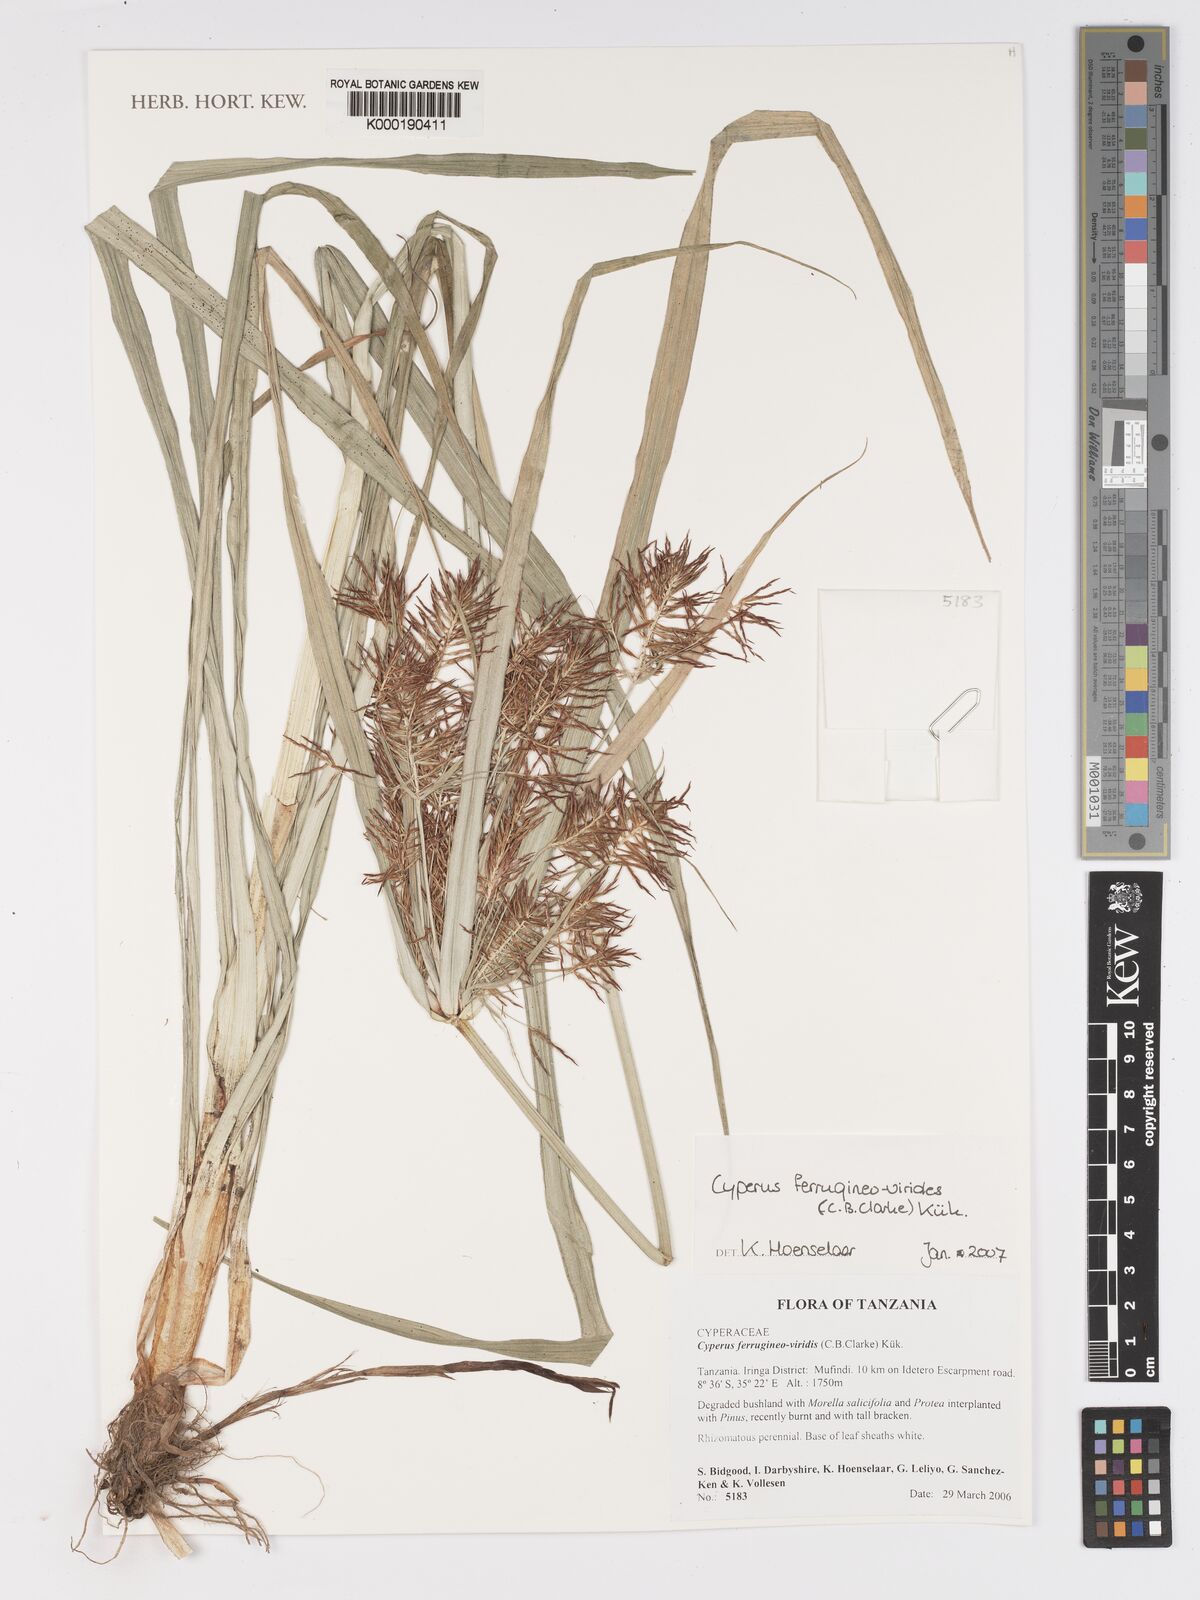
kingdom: Plantae
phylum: Tracheophyta
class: Liliopsida
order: Poales
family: Cyperaceae
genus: Cyperus
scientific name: Cyperus
